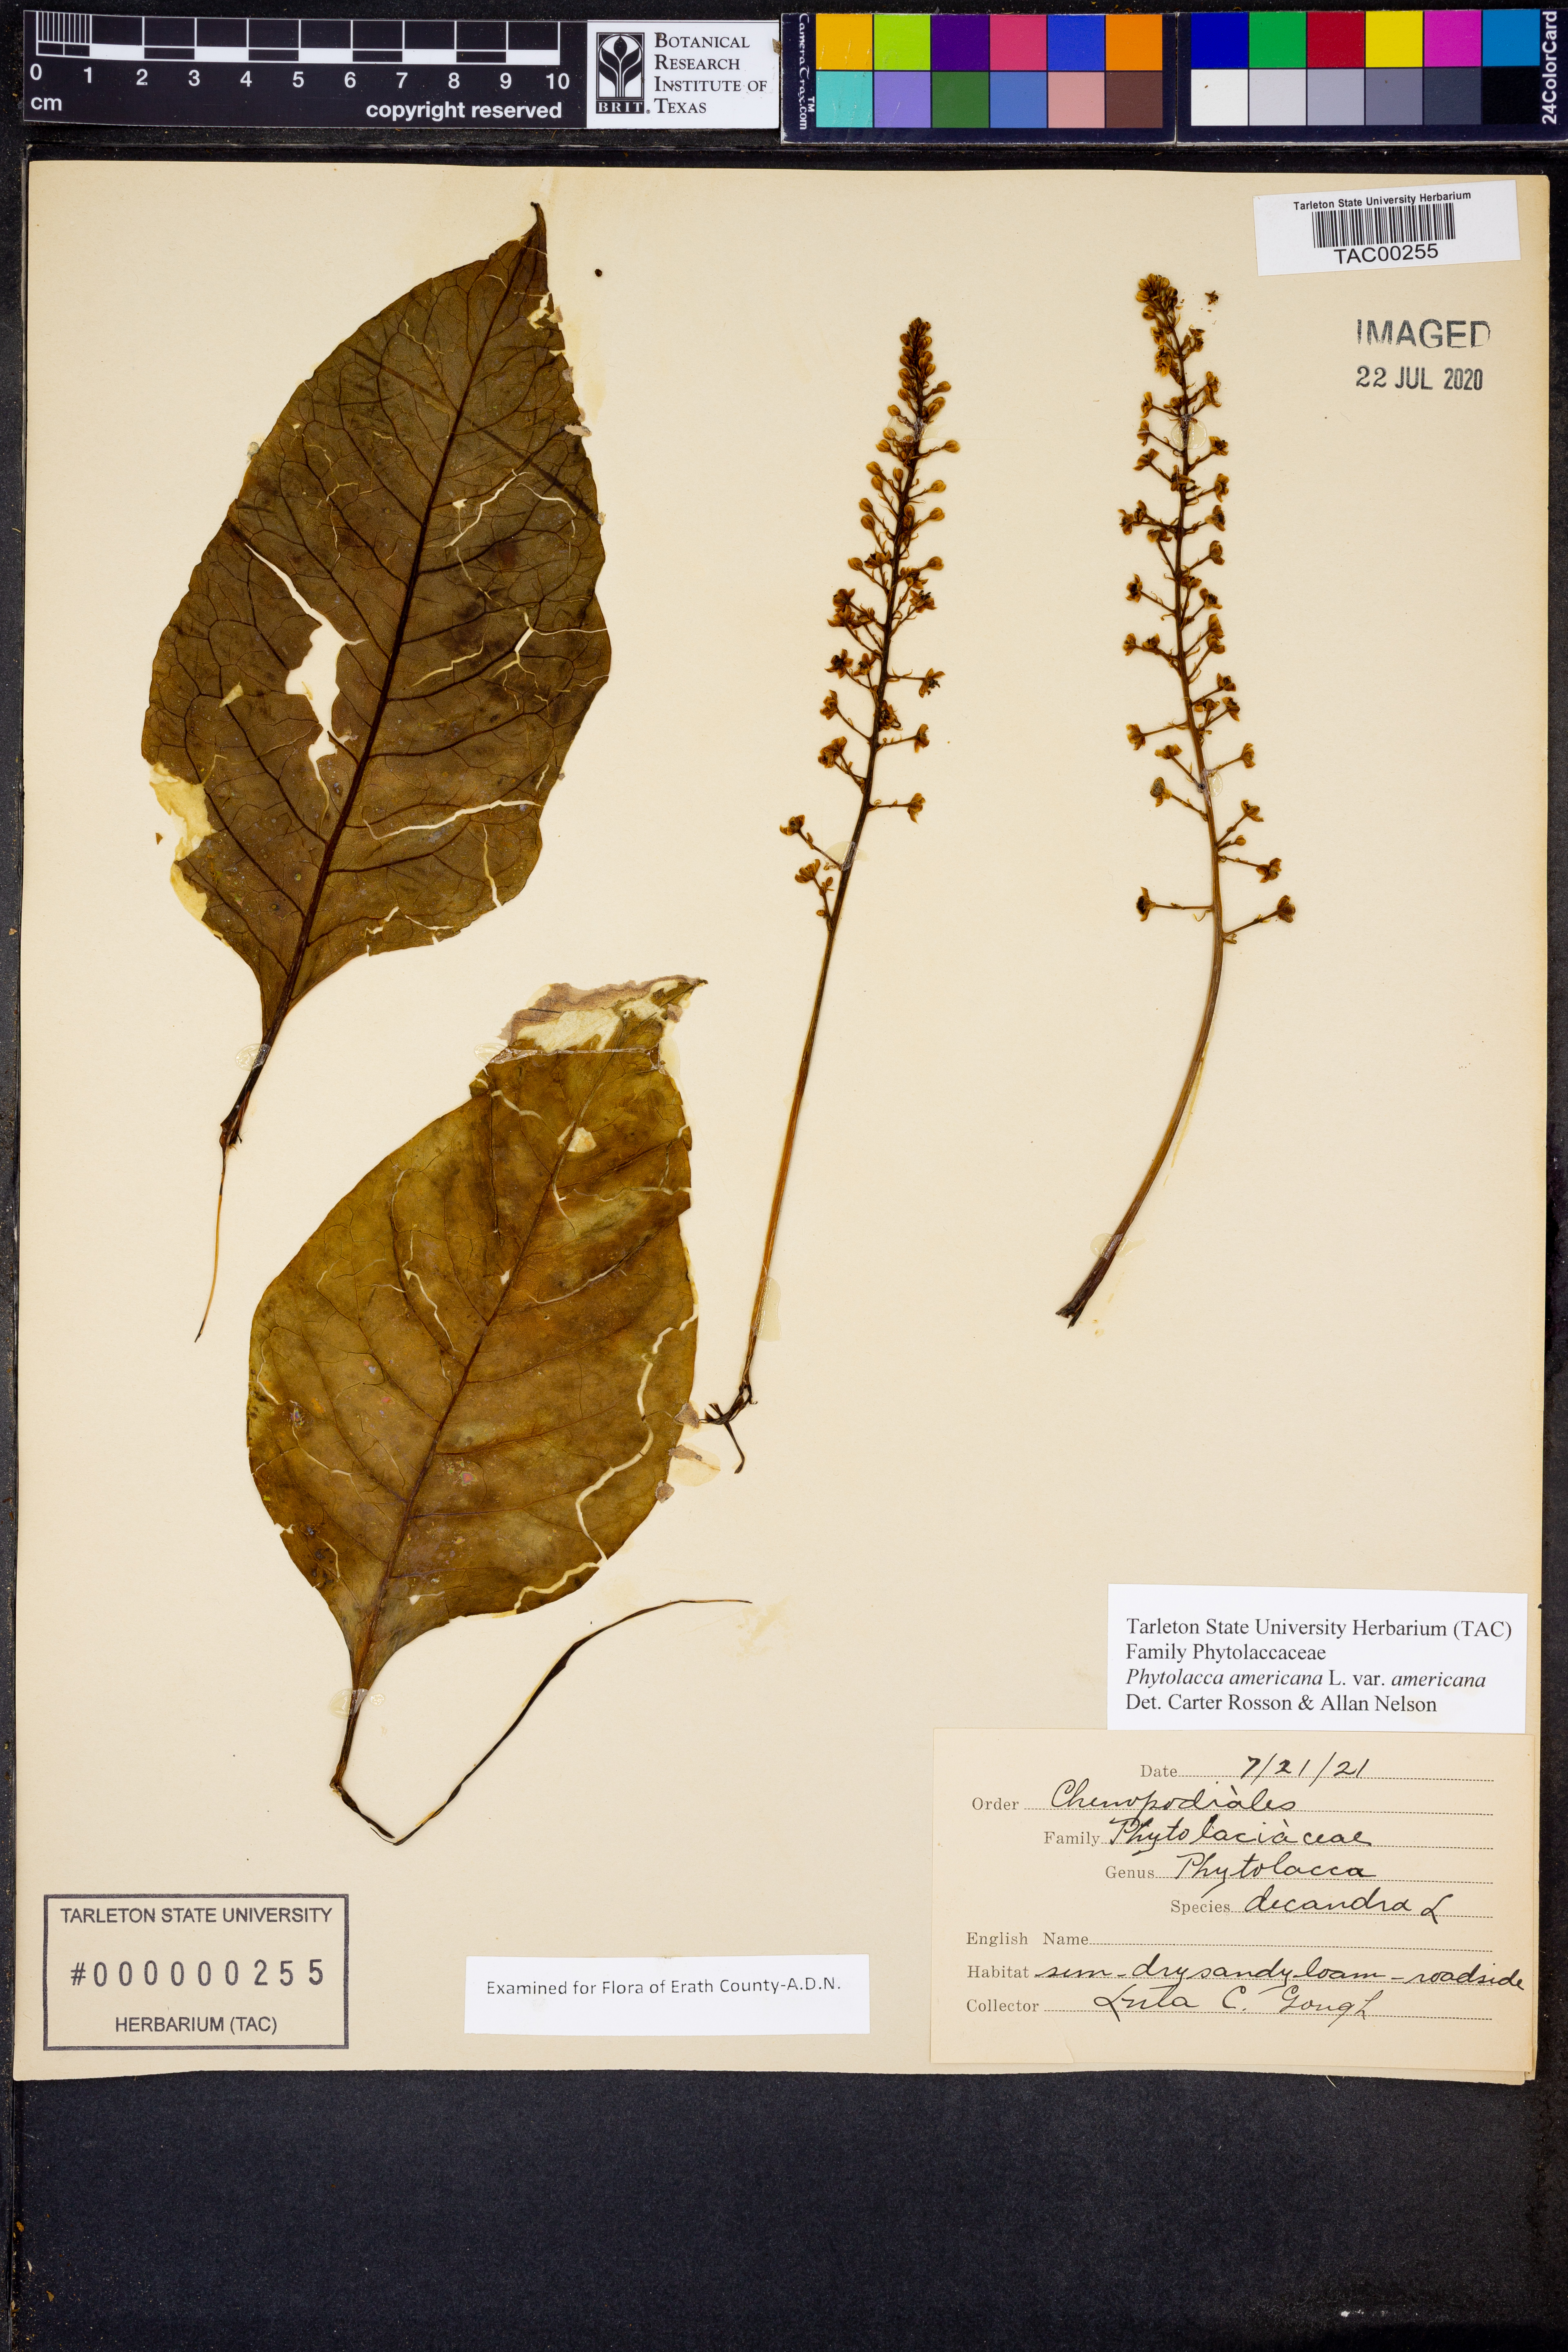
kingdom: Plantae
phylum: Tracheophyta
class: Magnoliopsida
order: Caryophyllales
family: Phytolaccaceae
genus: Phytolacca
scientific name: Phytolacca americana
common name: American pokeweed
